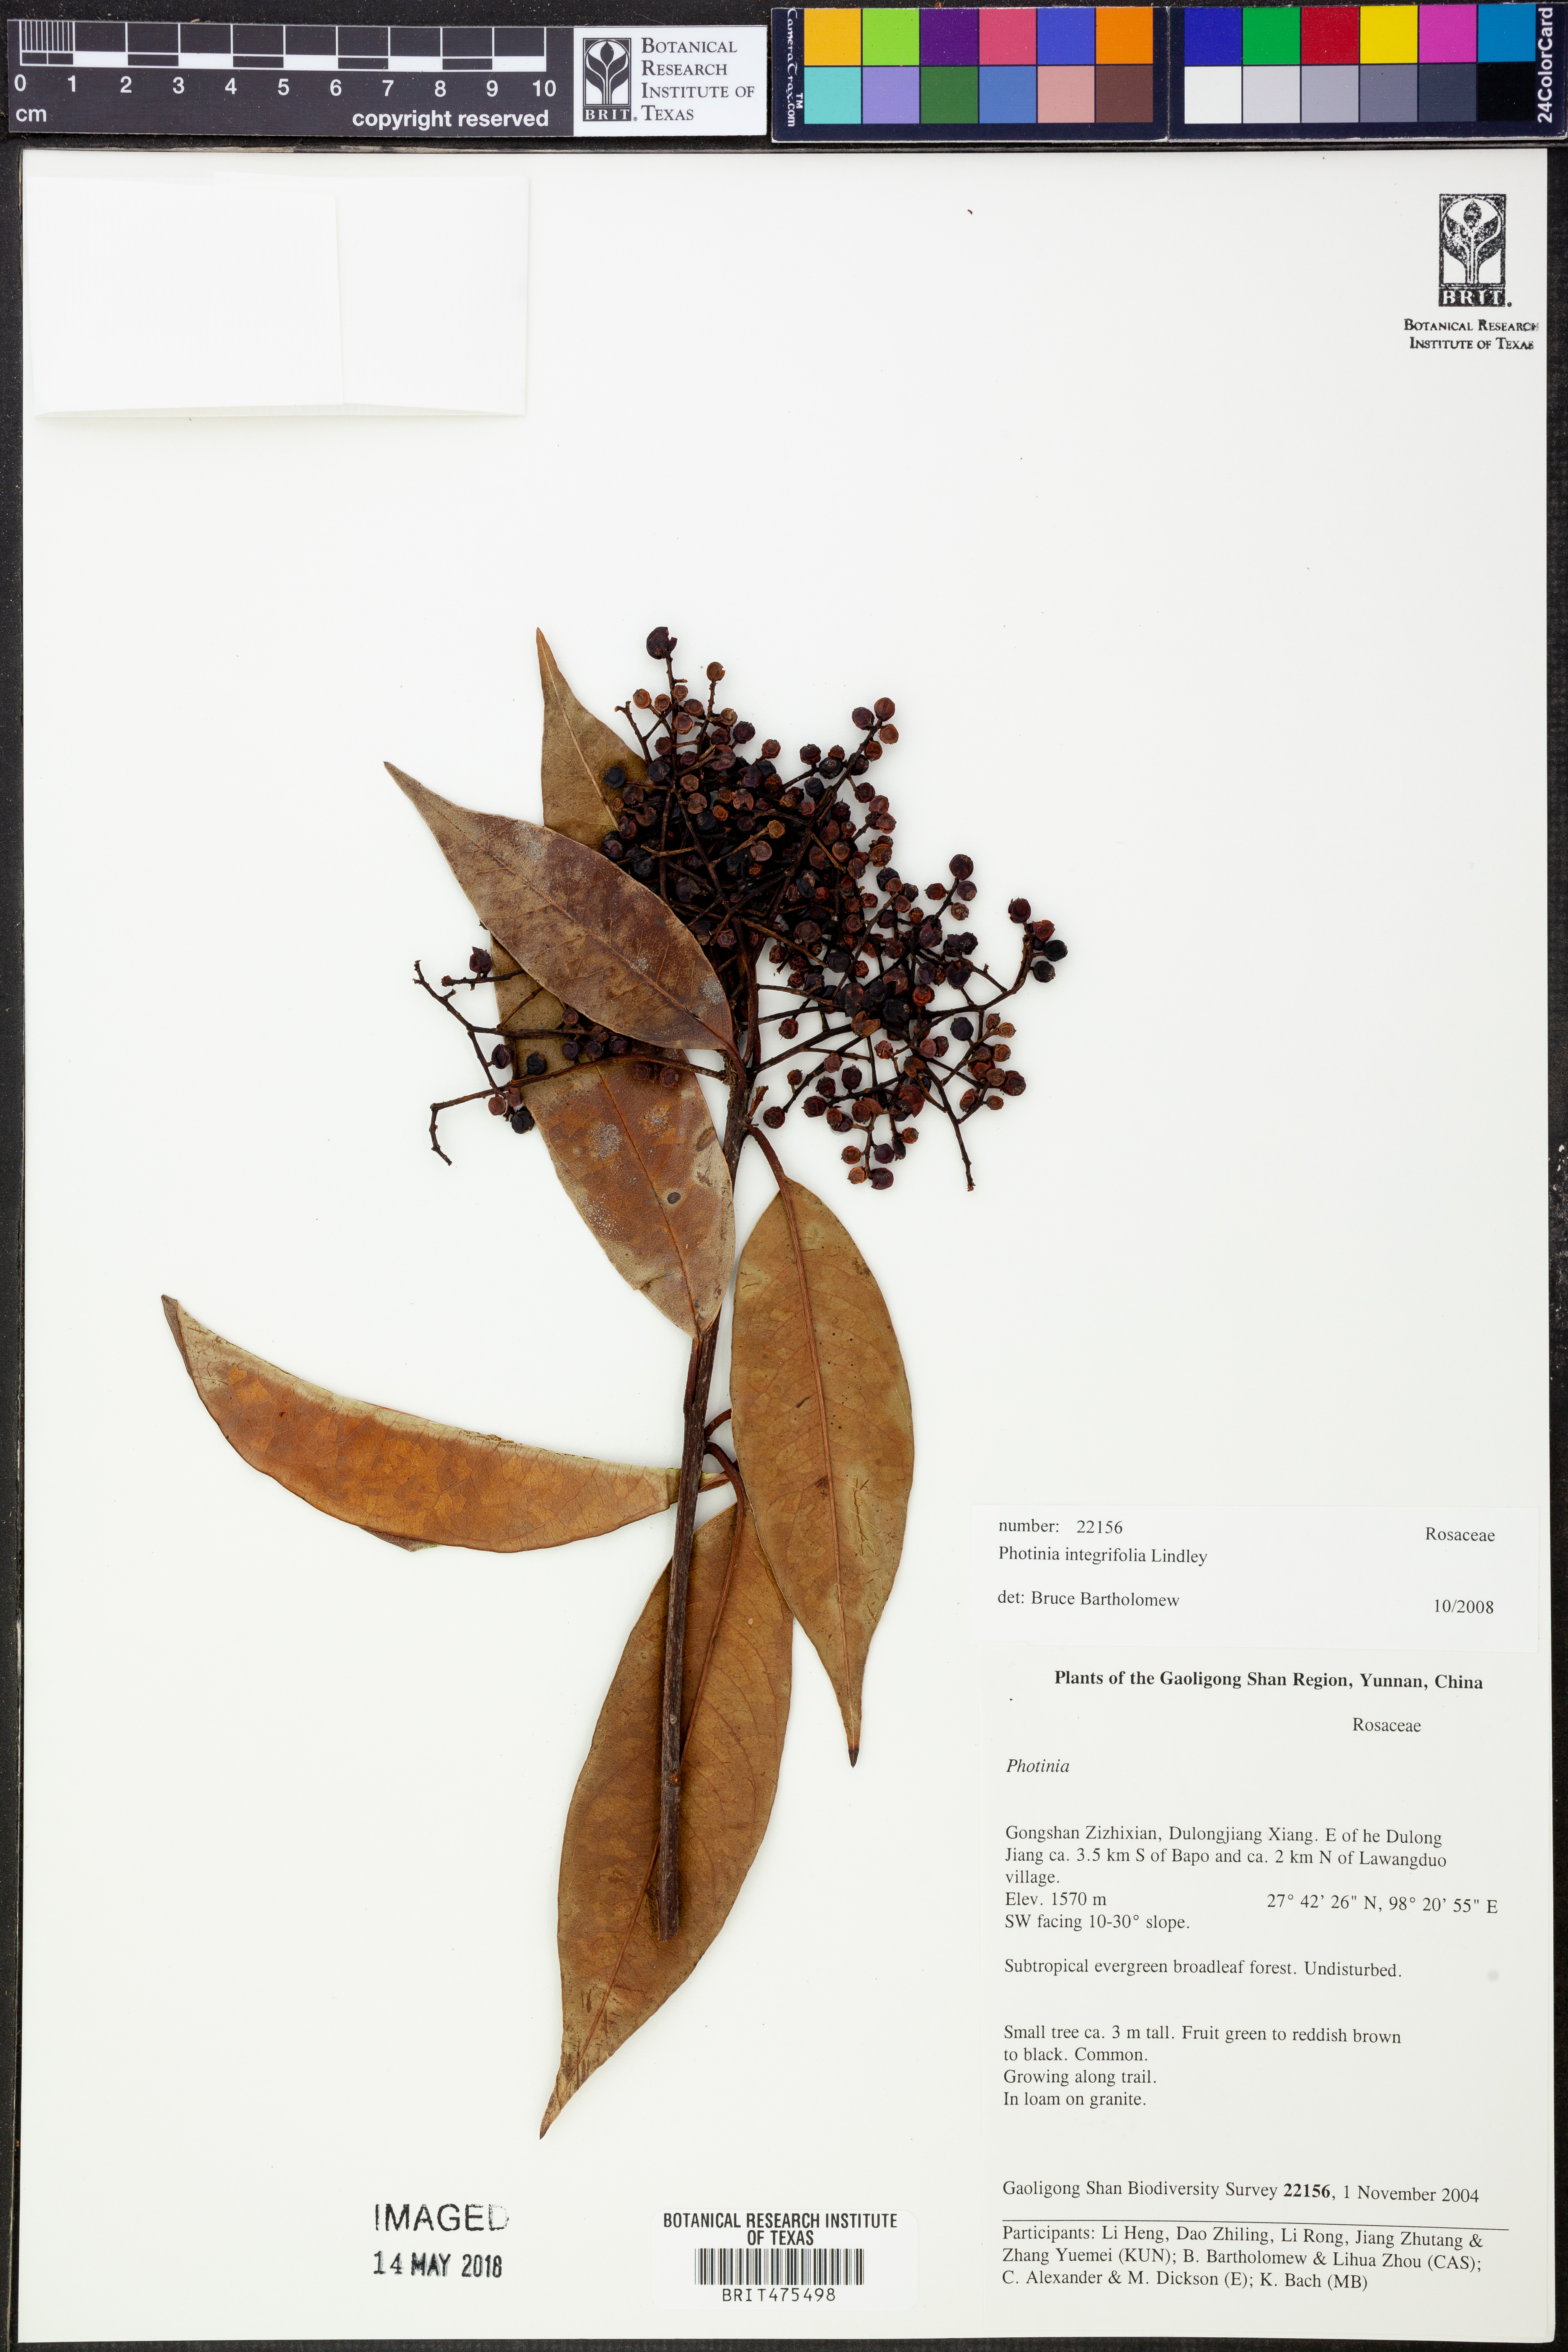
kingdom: Plantae
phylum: Tracheophyta
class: Magnoliopsida
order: Rosales
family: Rosaceae
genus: Photinia
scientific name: Photinia integrifolia
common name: Himalayan chokeberry
